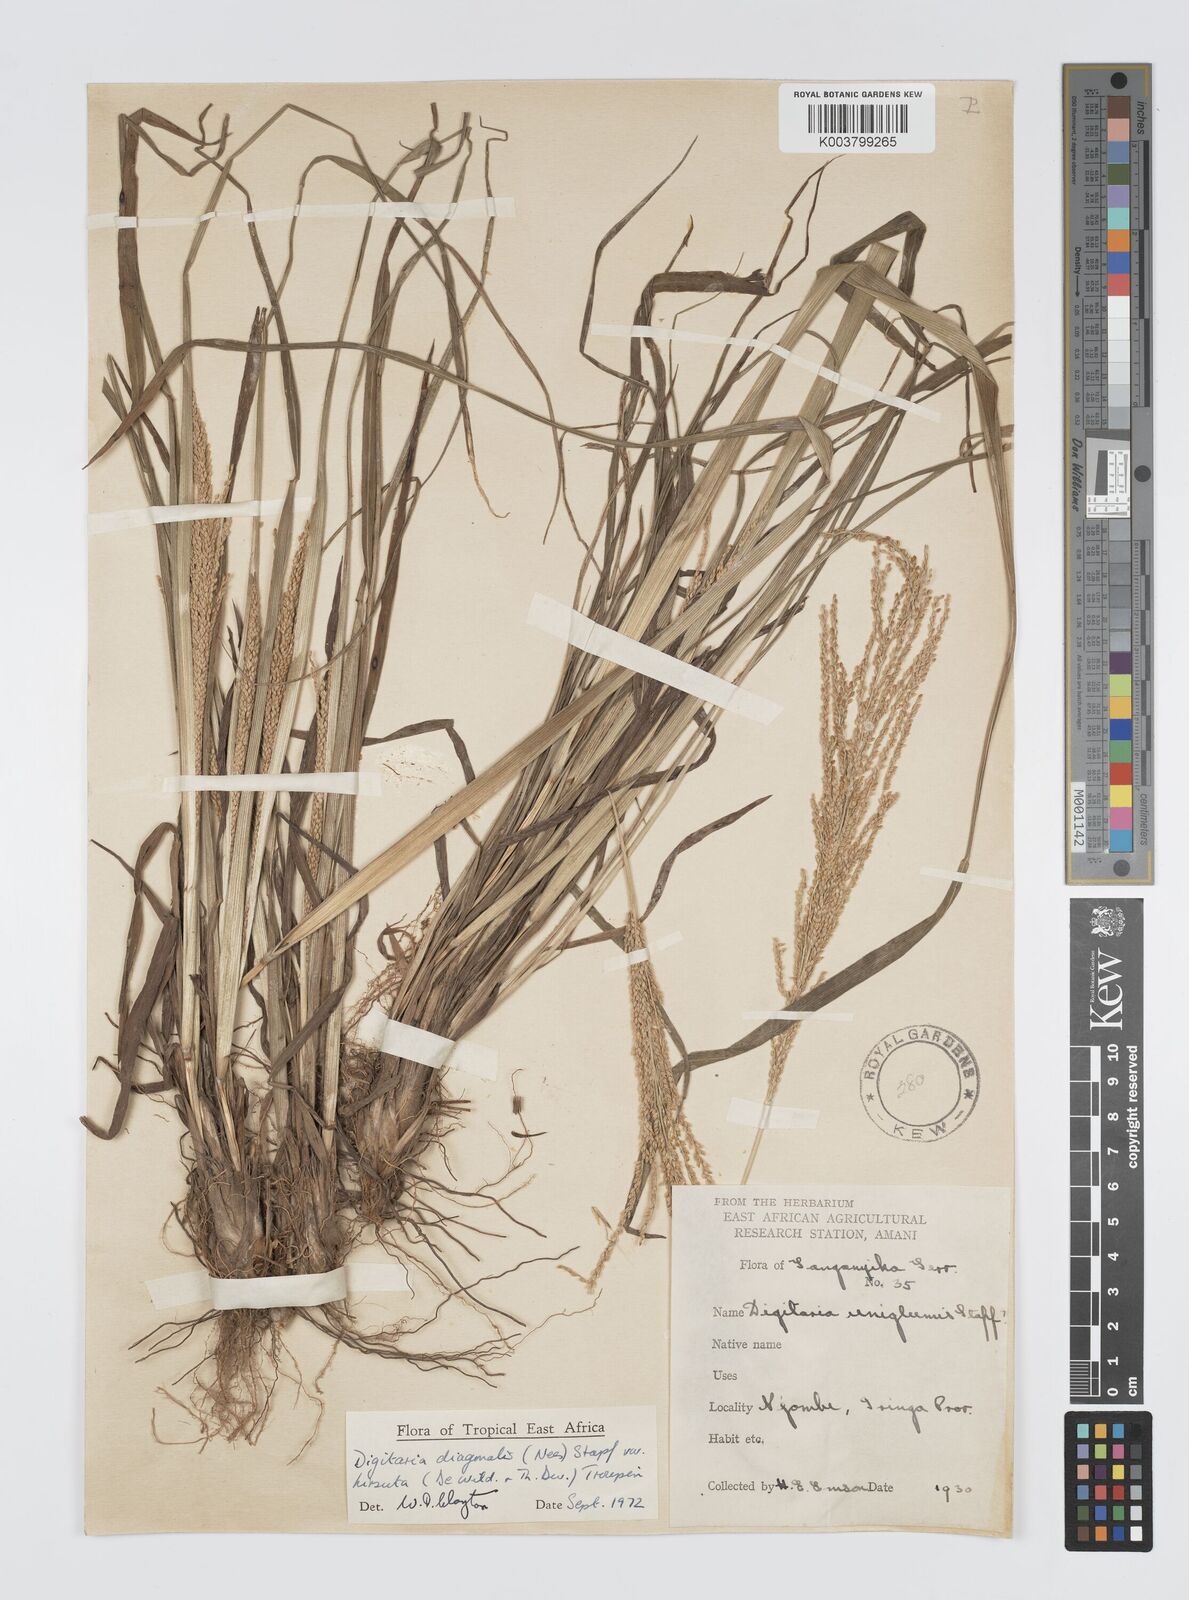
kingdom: Plantae
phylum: Tracheophyta
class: Liliopsida
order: Poales
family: Poaceae
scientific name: Poaceae
